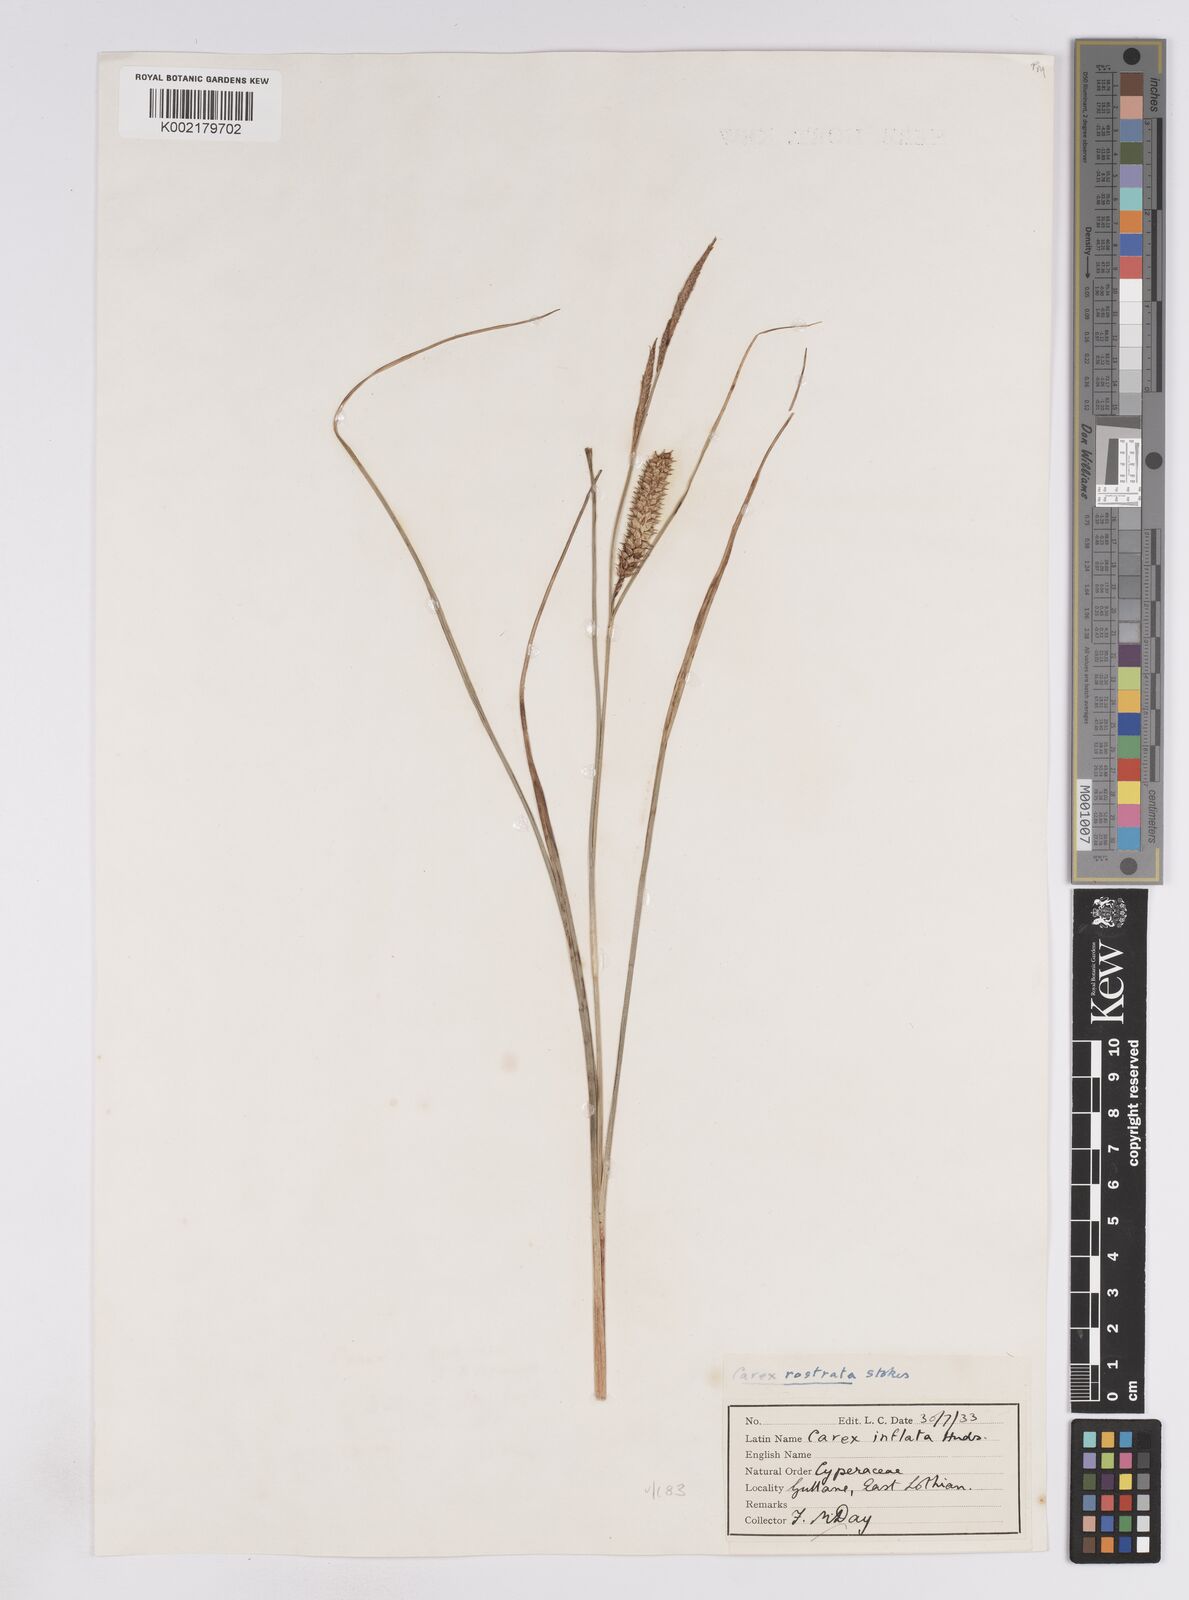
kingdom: Plantae
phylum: Tracheophyta
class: Liliopsida
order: Poales
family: Cyperaceae
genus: Carex
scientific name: Carex rostrata
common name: Bottle sedge
